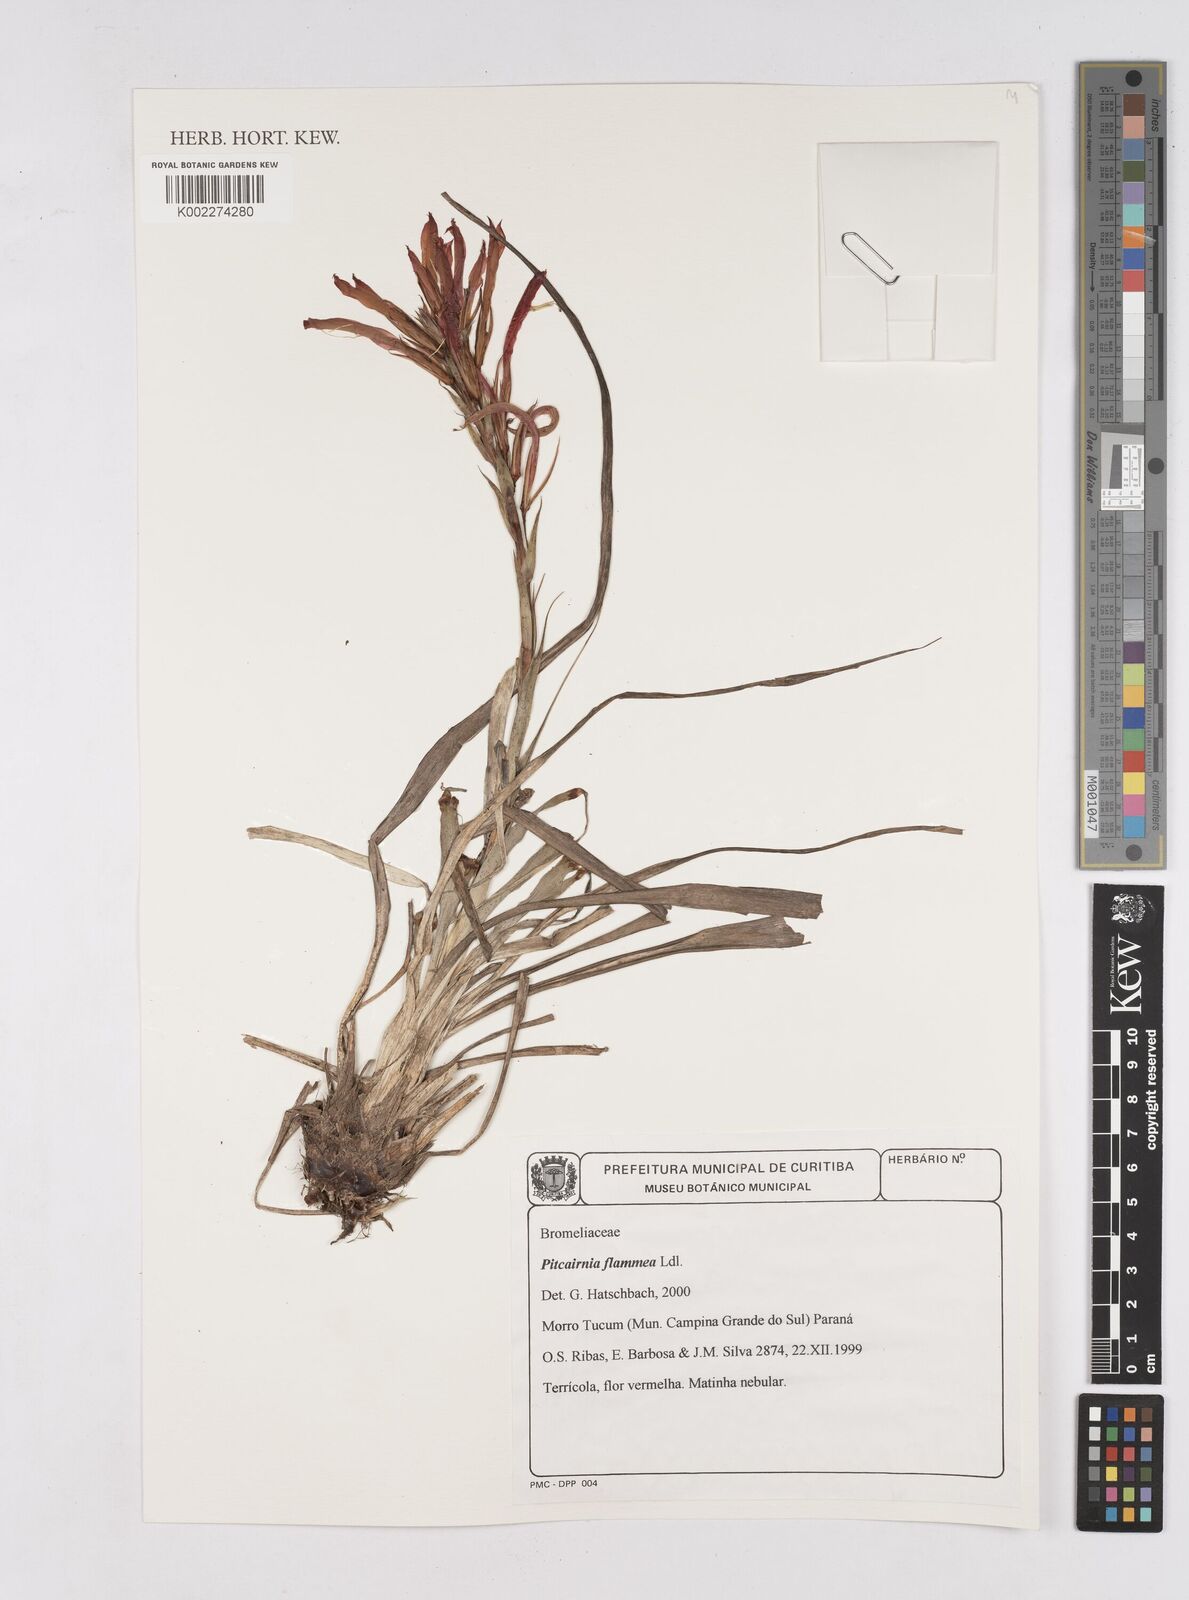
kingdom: Plantae
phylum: Tracheophyta
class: Liliopsida
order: Poales
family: Bromeliaceae
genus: Pitcairnia
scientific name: Pitcairnia flammea
